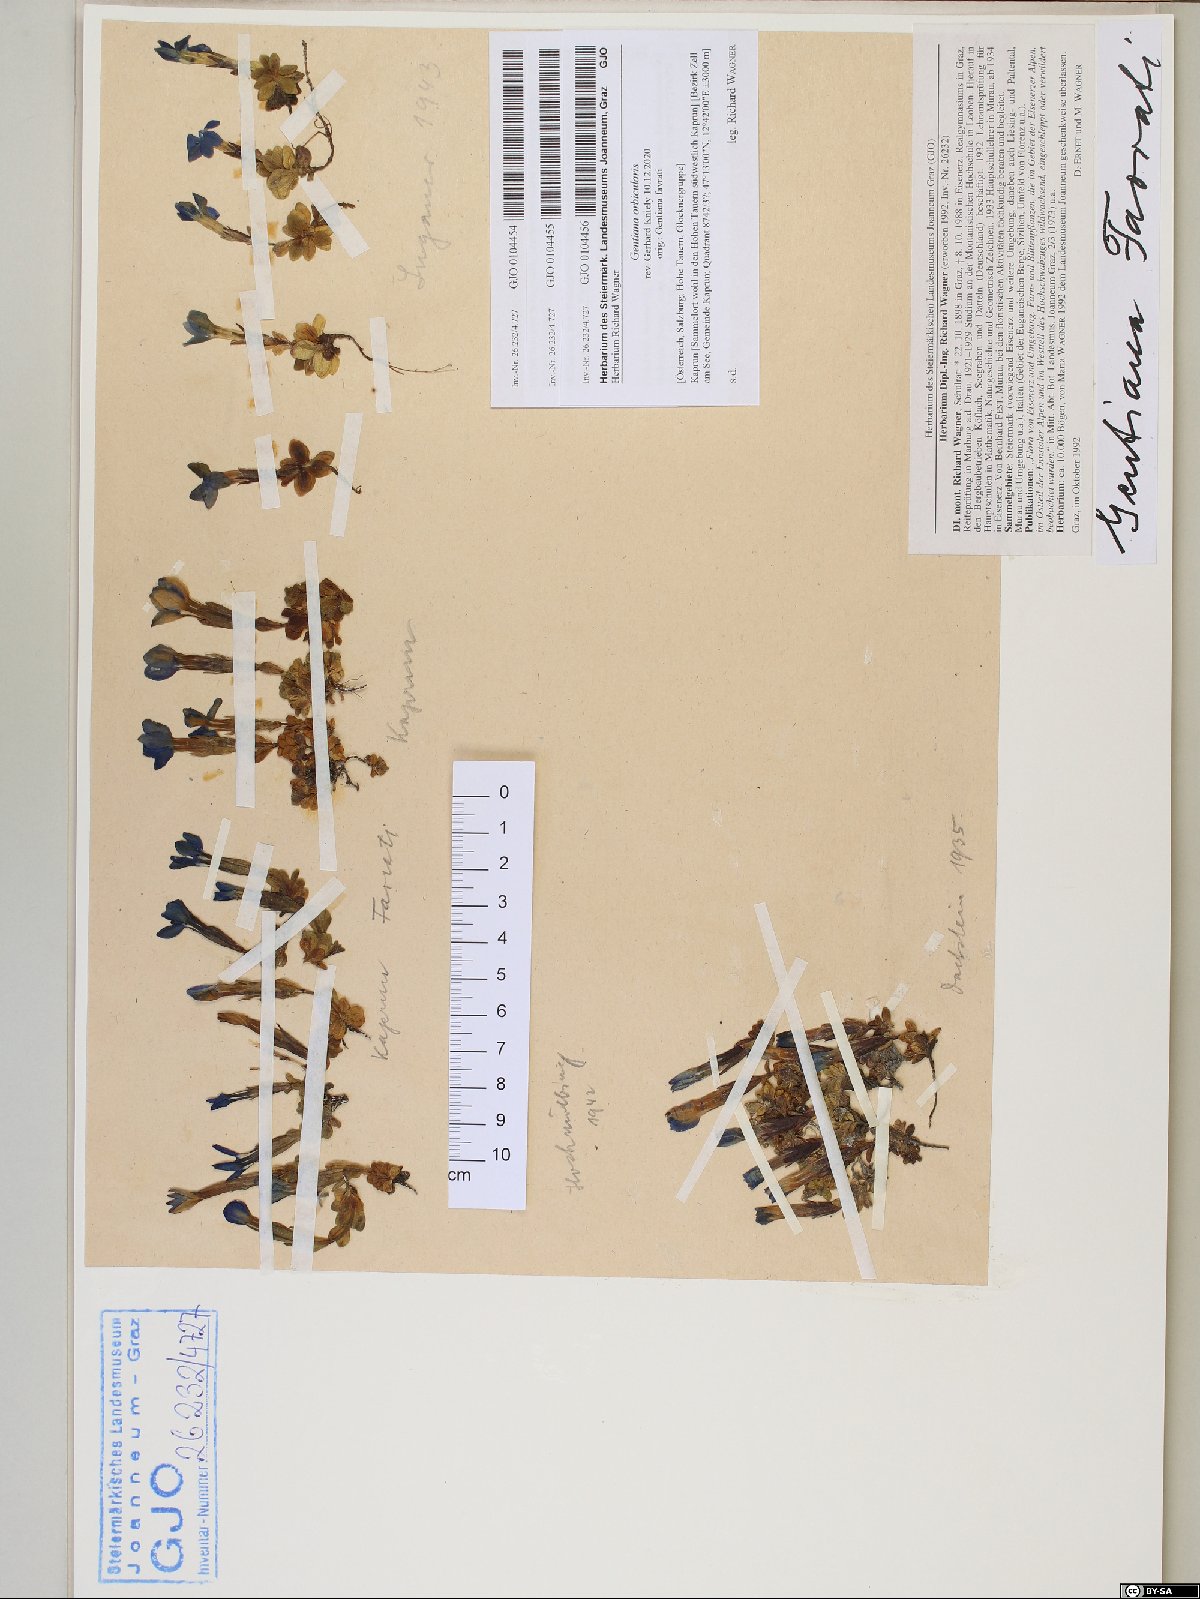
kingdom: Plantae
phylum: Tracheophyta
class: Magnoliopsida
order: Gentianales
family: Gentianaceae
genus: Gentiana
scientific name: Gentiana orbicularis
